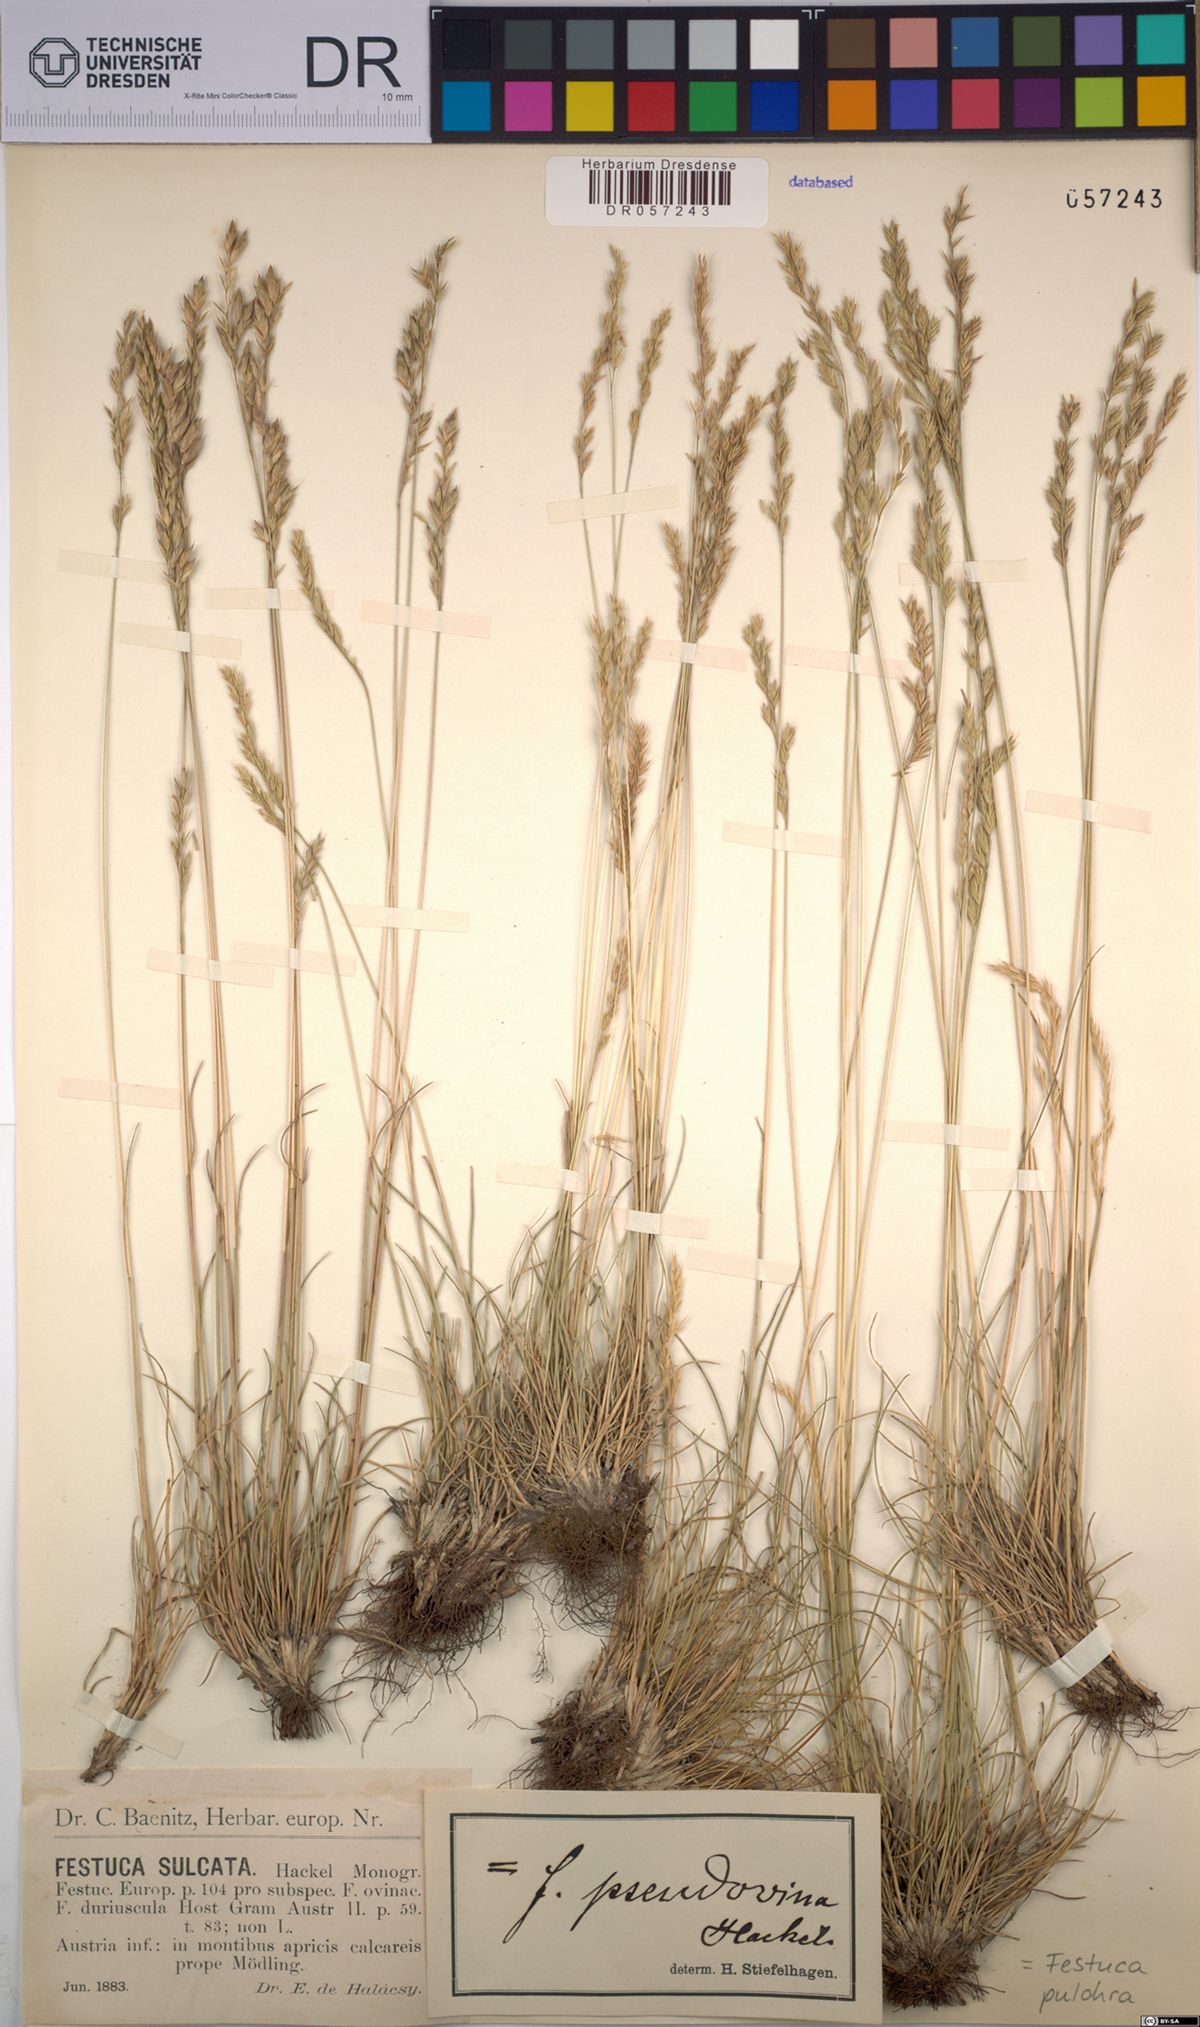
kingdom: Plantae
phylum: Tracheophyta
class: Liliopsida
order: Poales
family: Poaceae
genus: Festuca
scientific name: Festuca pulchra
